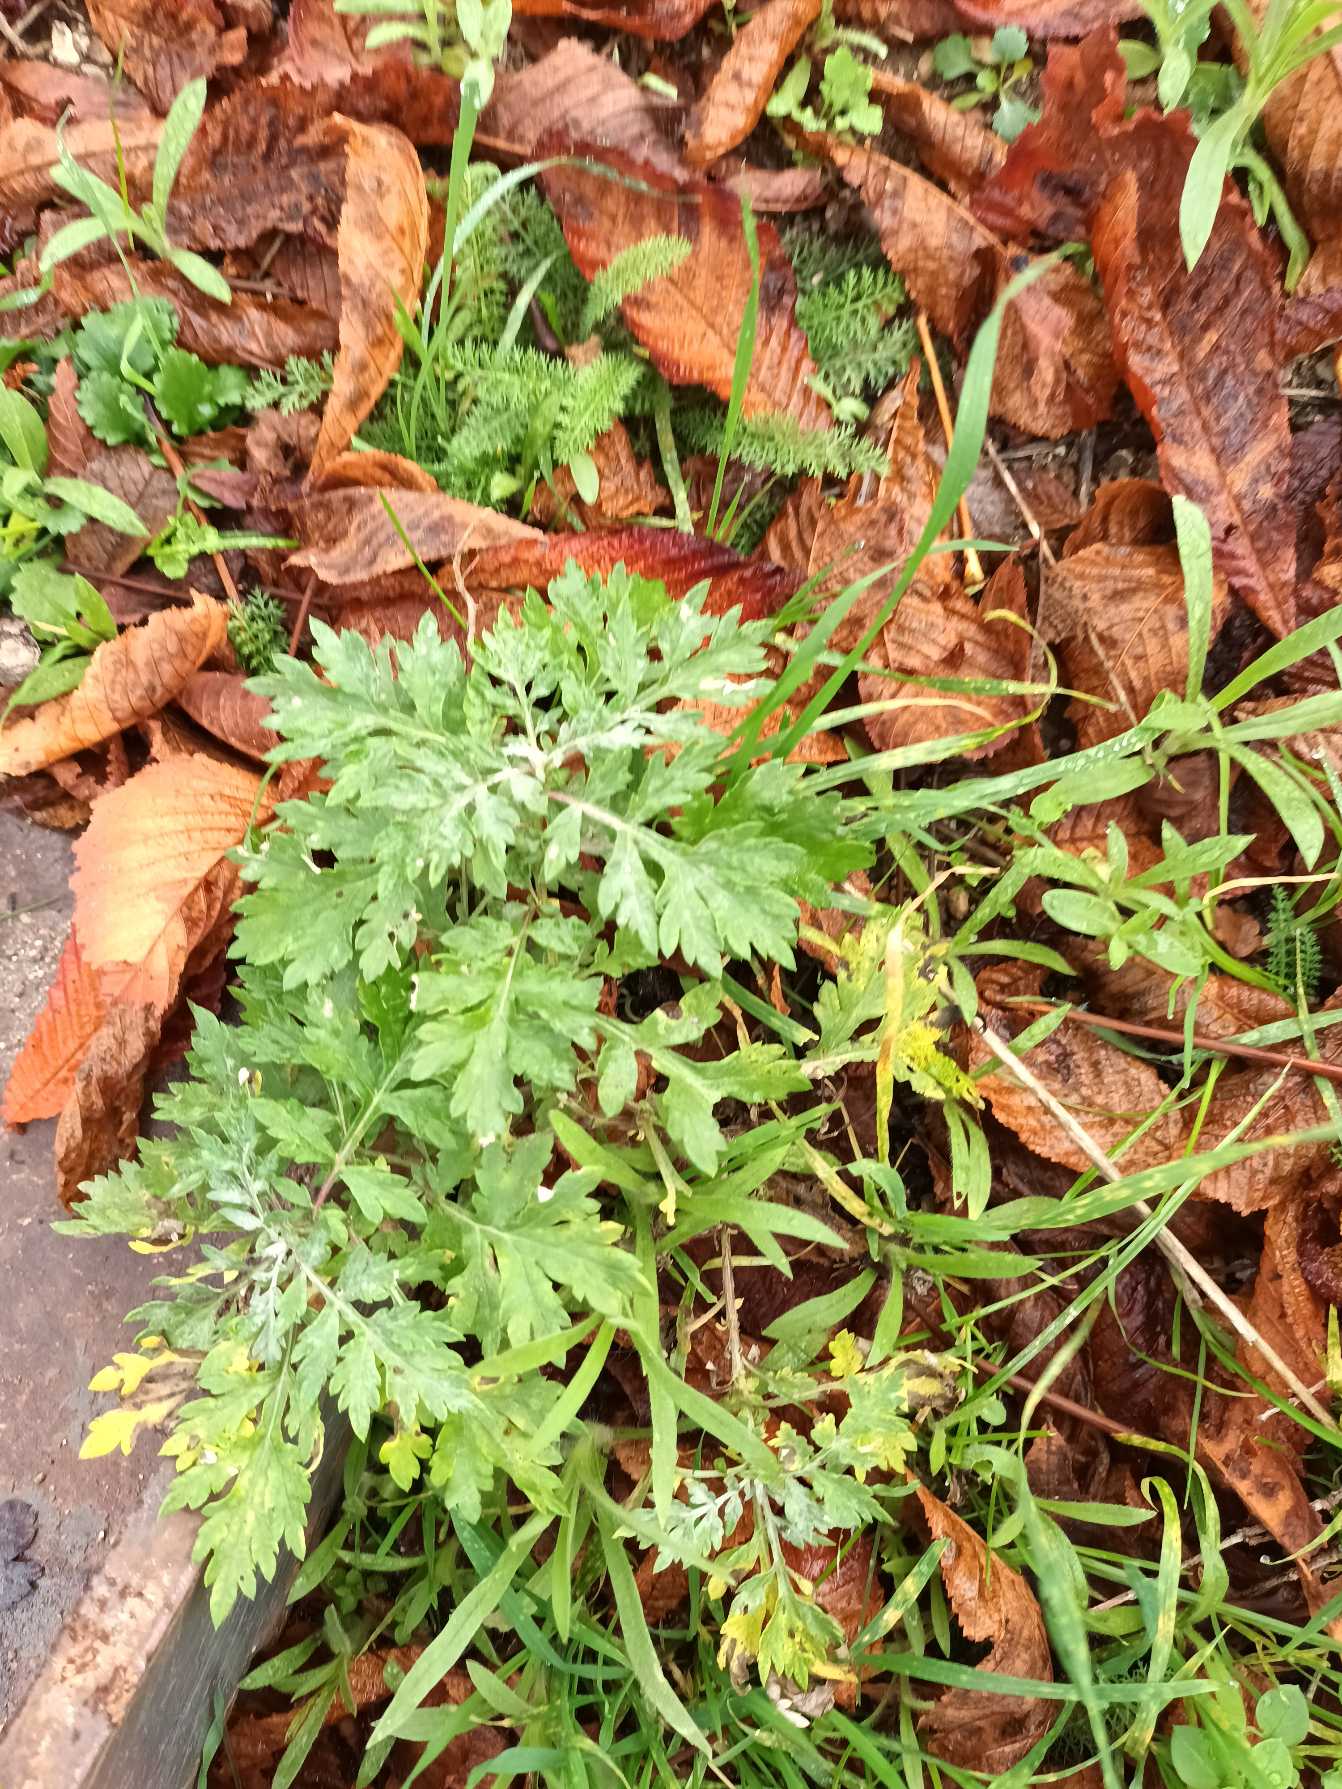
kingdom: Plantae
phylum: Tracheophyta
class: Magnoliopsida
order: Asterales
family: Asteraceae
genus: Artemisia
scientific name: Artemisia vulgaris
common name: Grå-bynke
